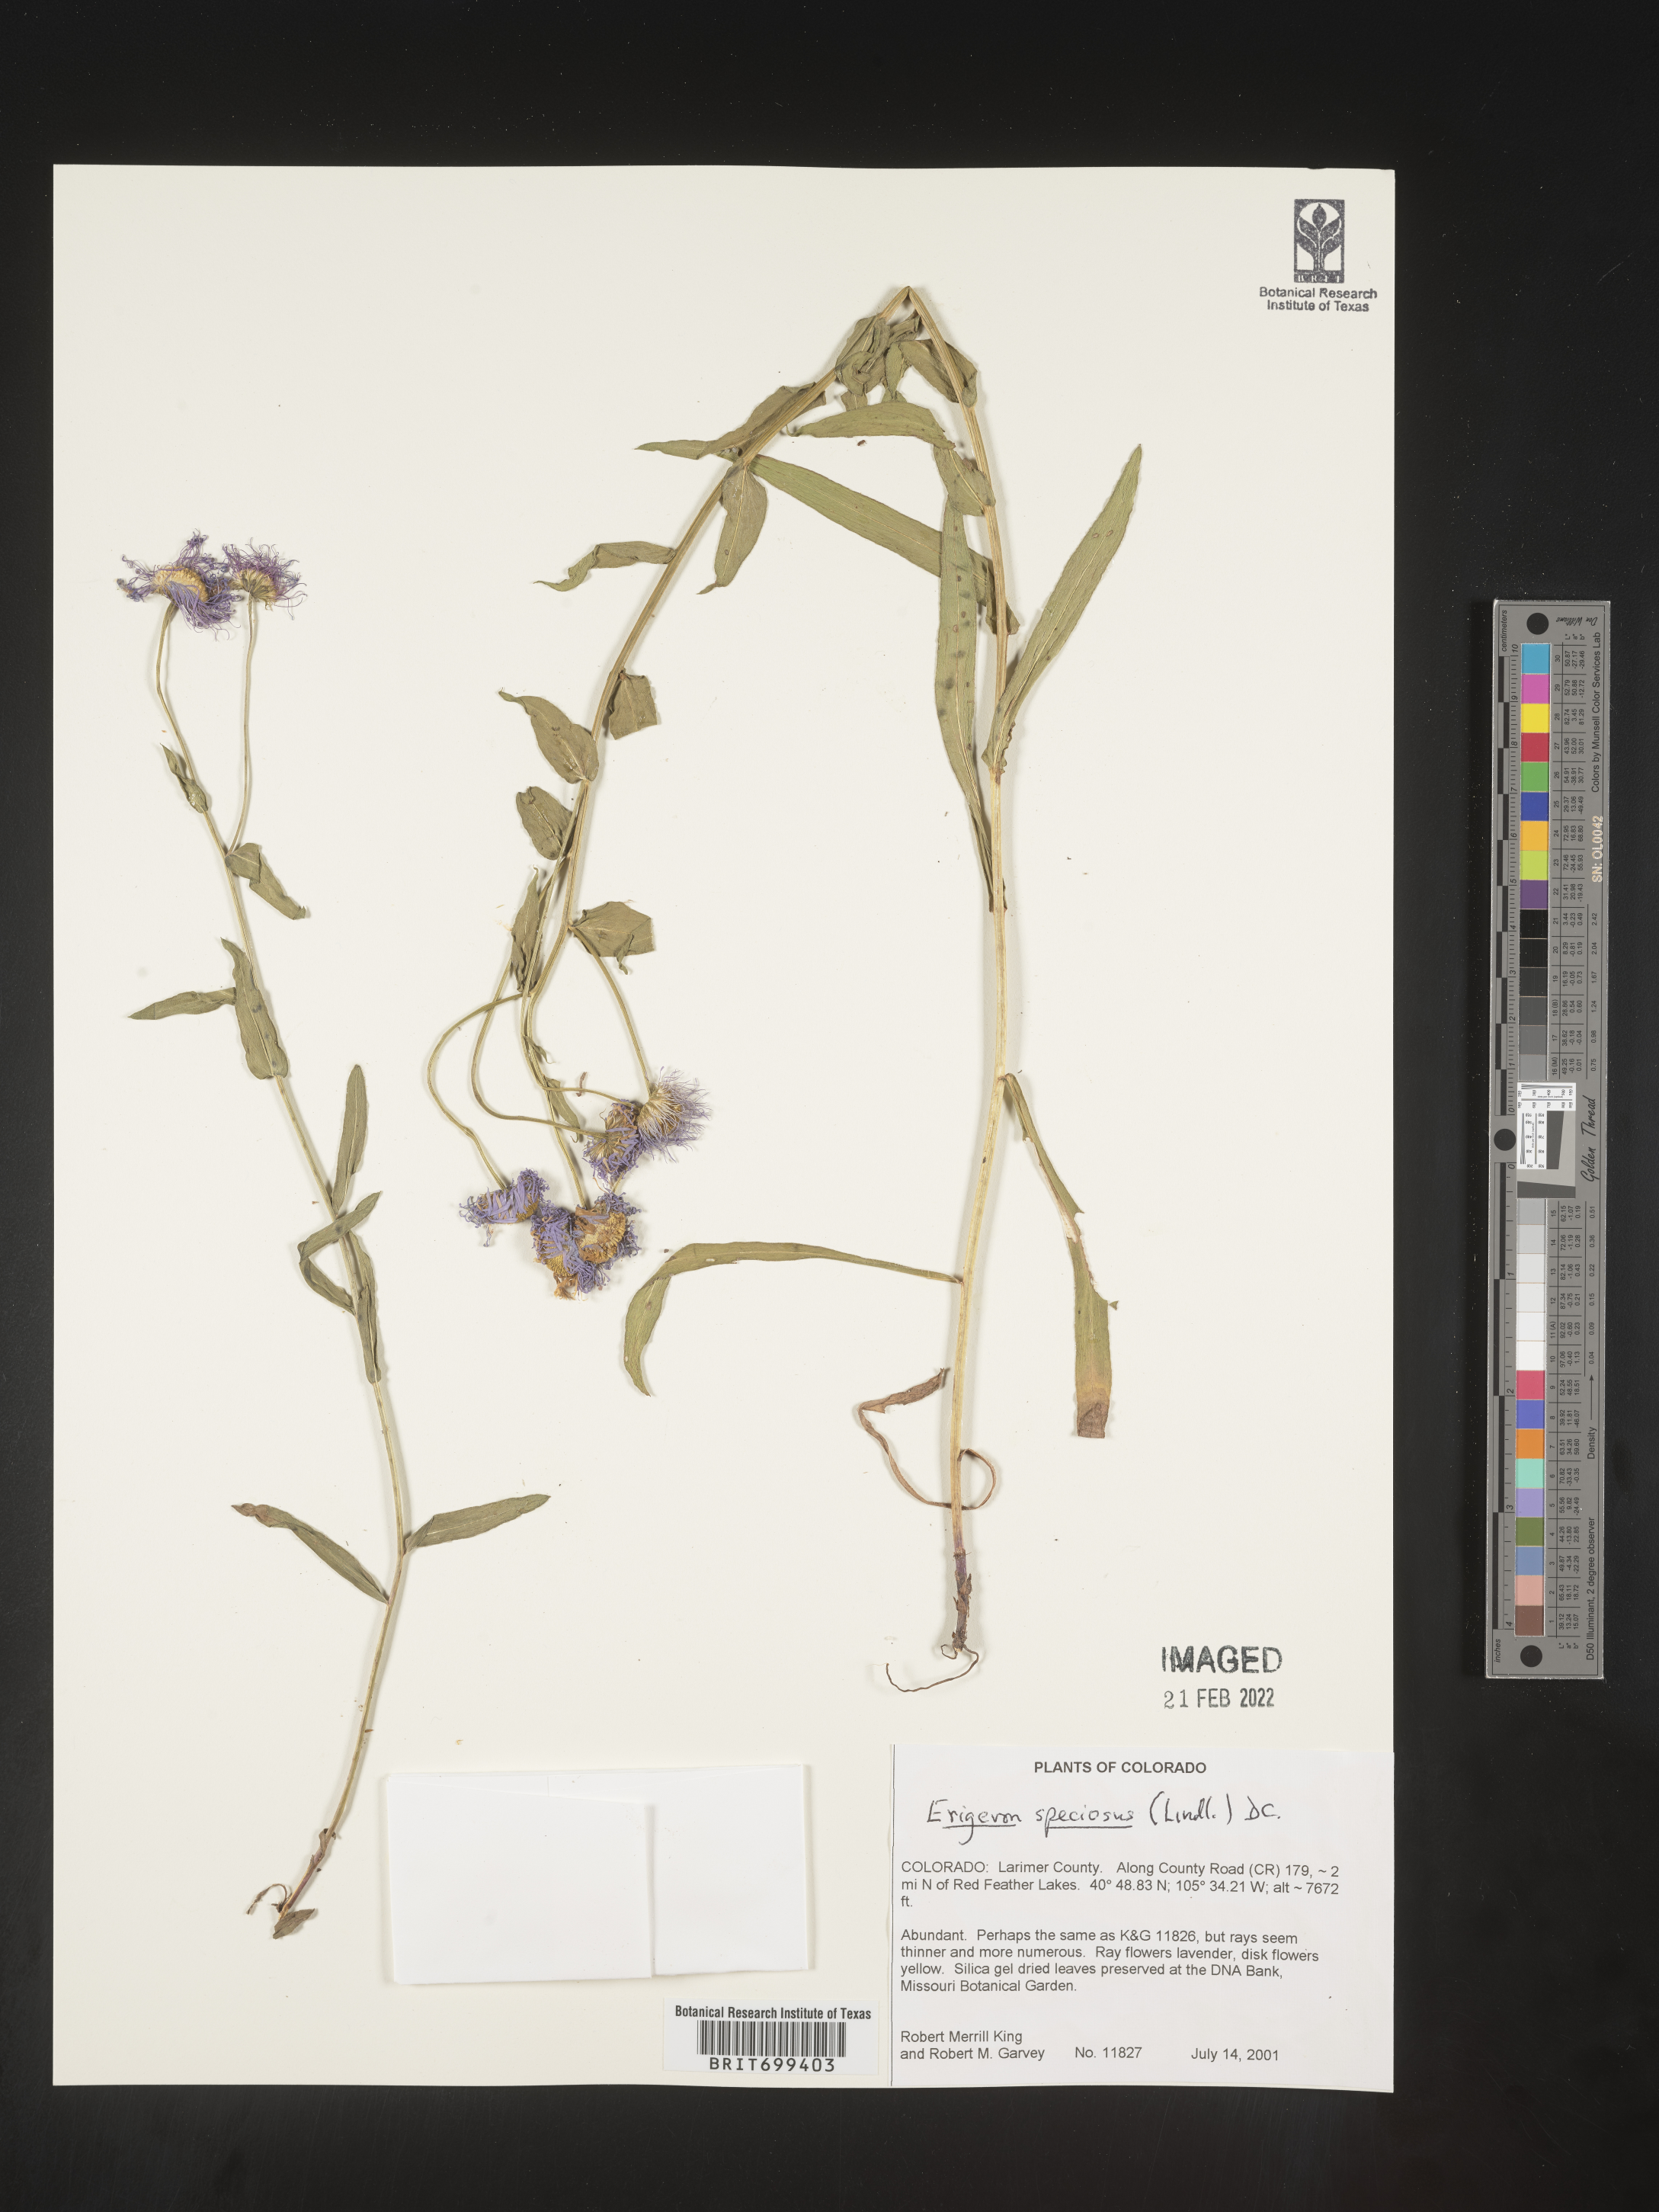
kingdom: Plantae
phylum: Tracheophyta
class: Magnoliopsida
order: Asterales
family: Asteraceae
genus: Erigeron
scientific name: Erigeron speciosus
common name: Aspen fleabane
